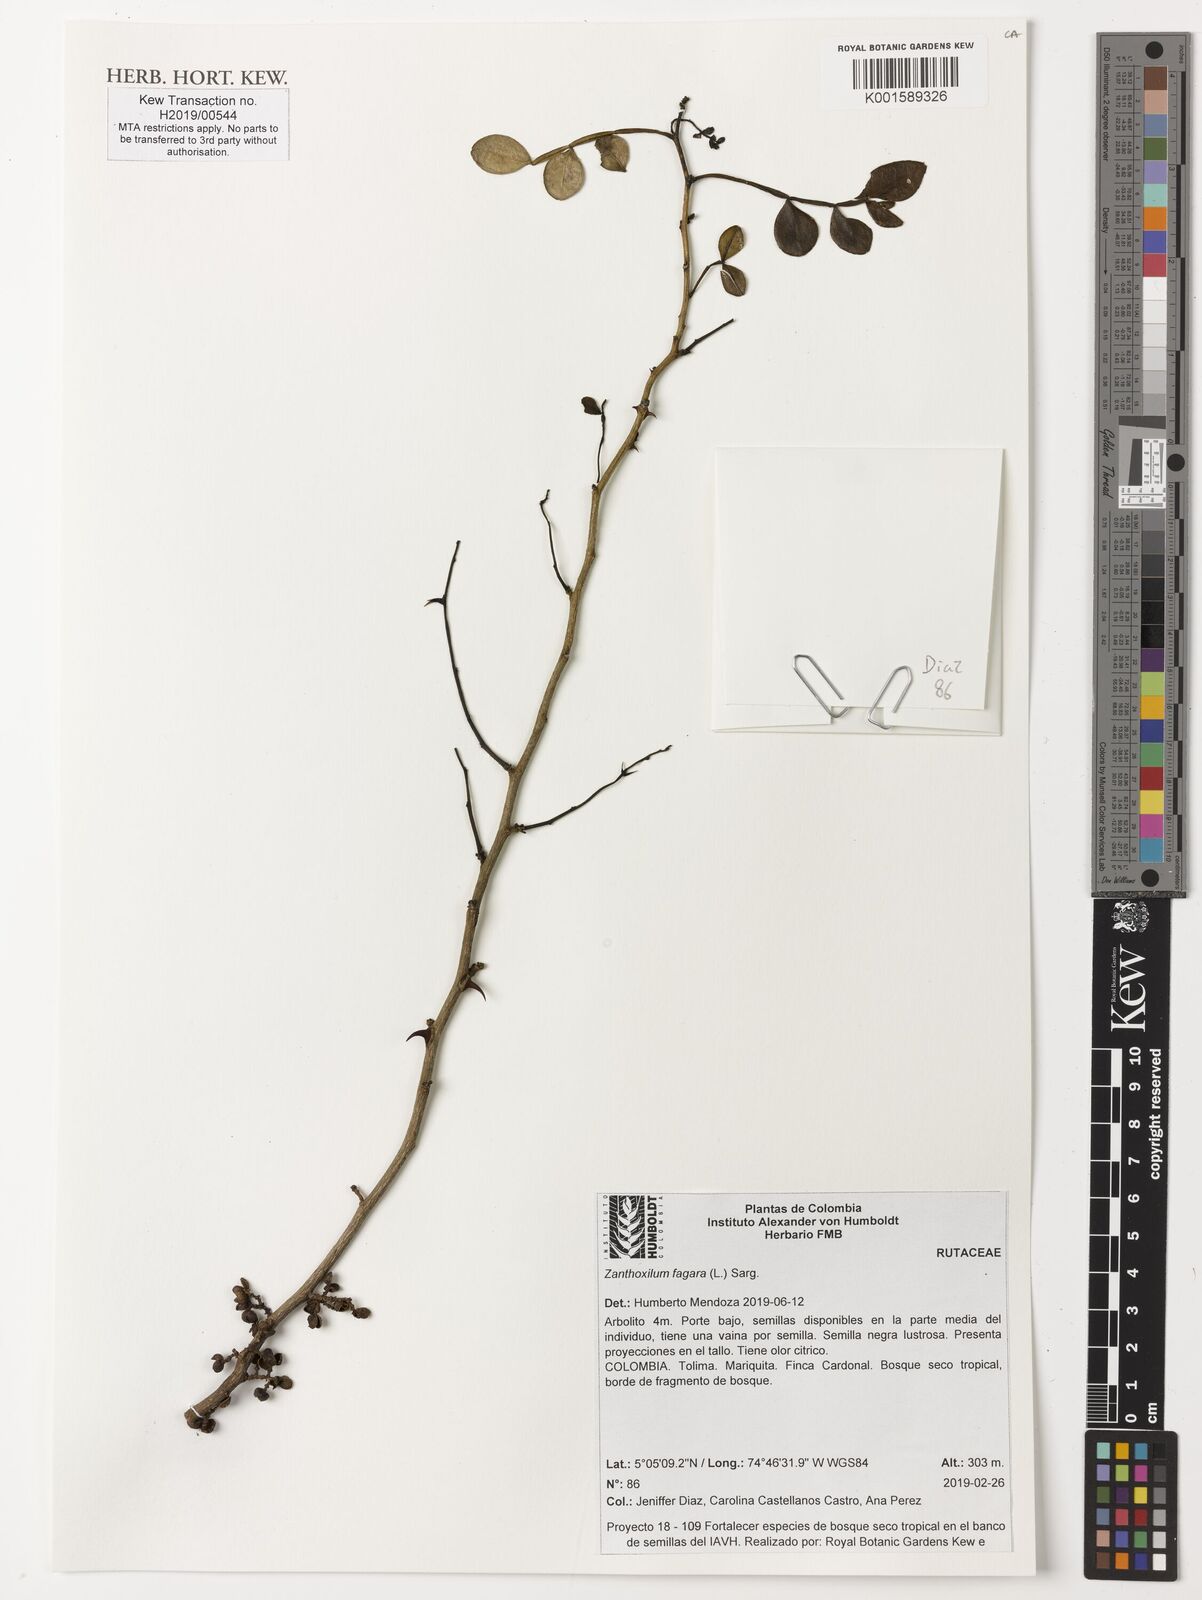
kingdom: Plantae
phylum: Tracheophyta
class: Magnoliopsida
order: Sapindales
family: Rutaceae
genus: Zanthoxylum
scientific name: Zanthoxylum fagara
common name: Lime prickly-ash
